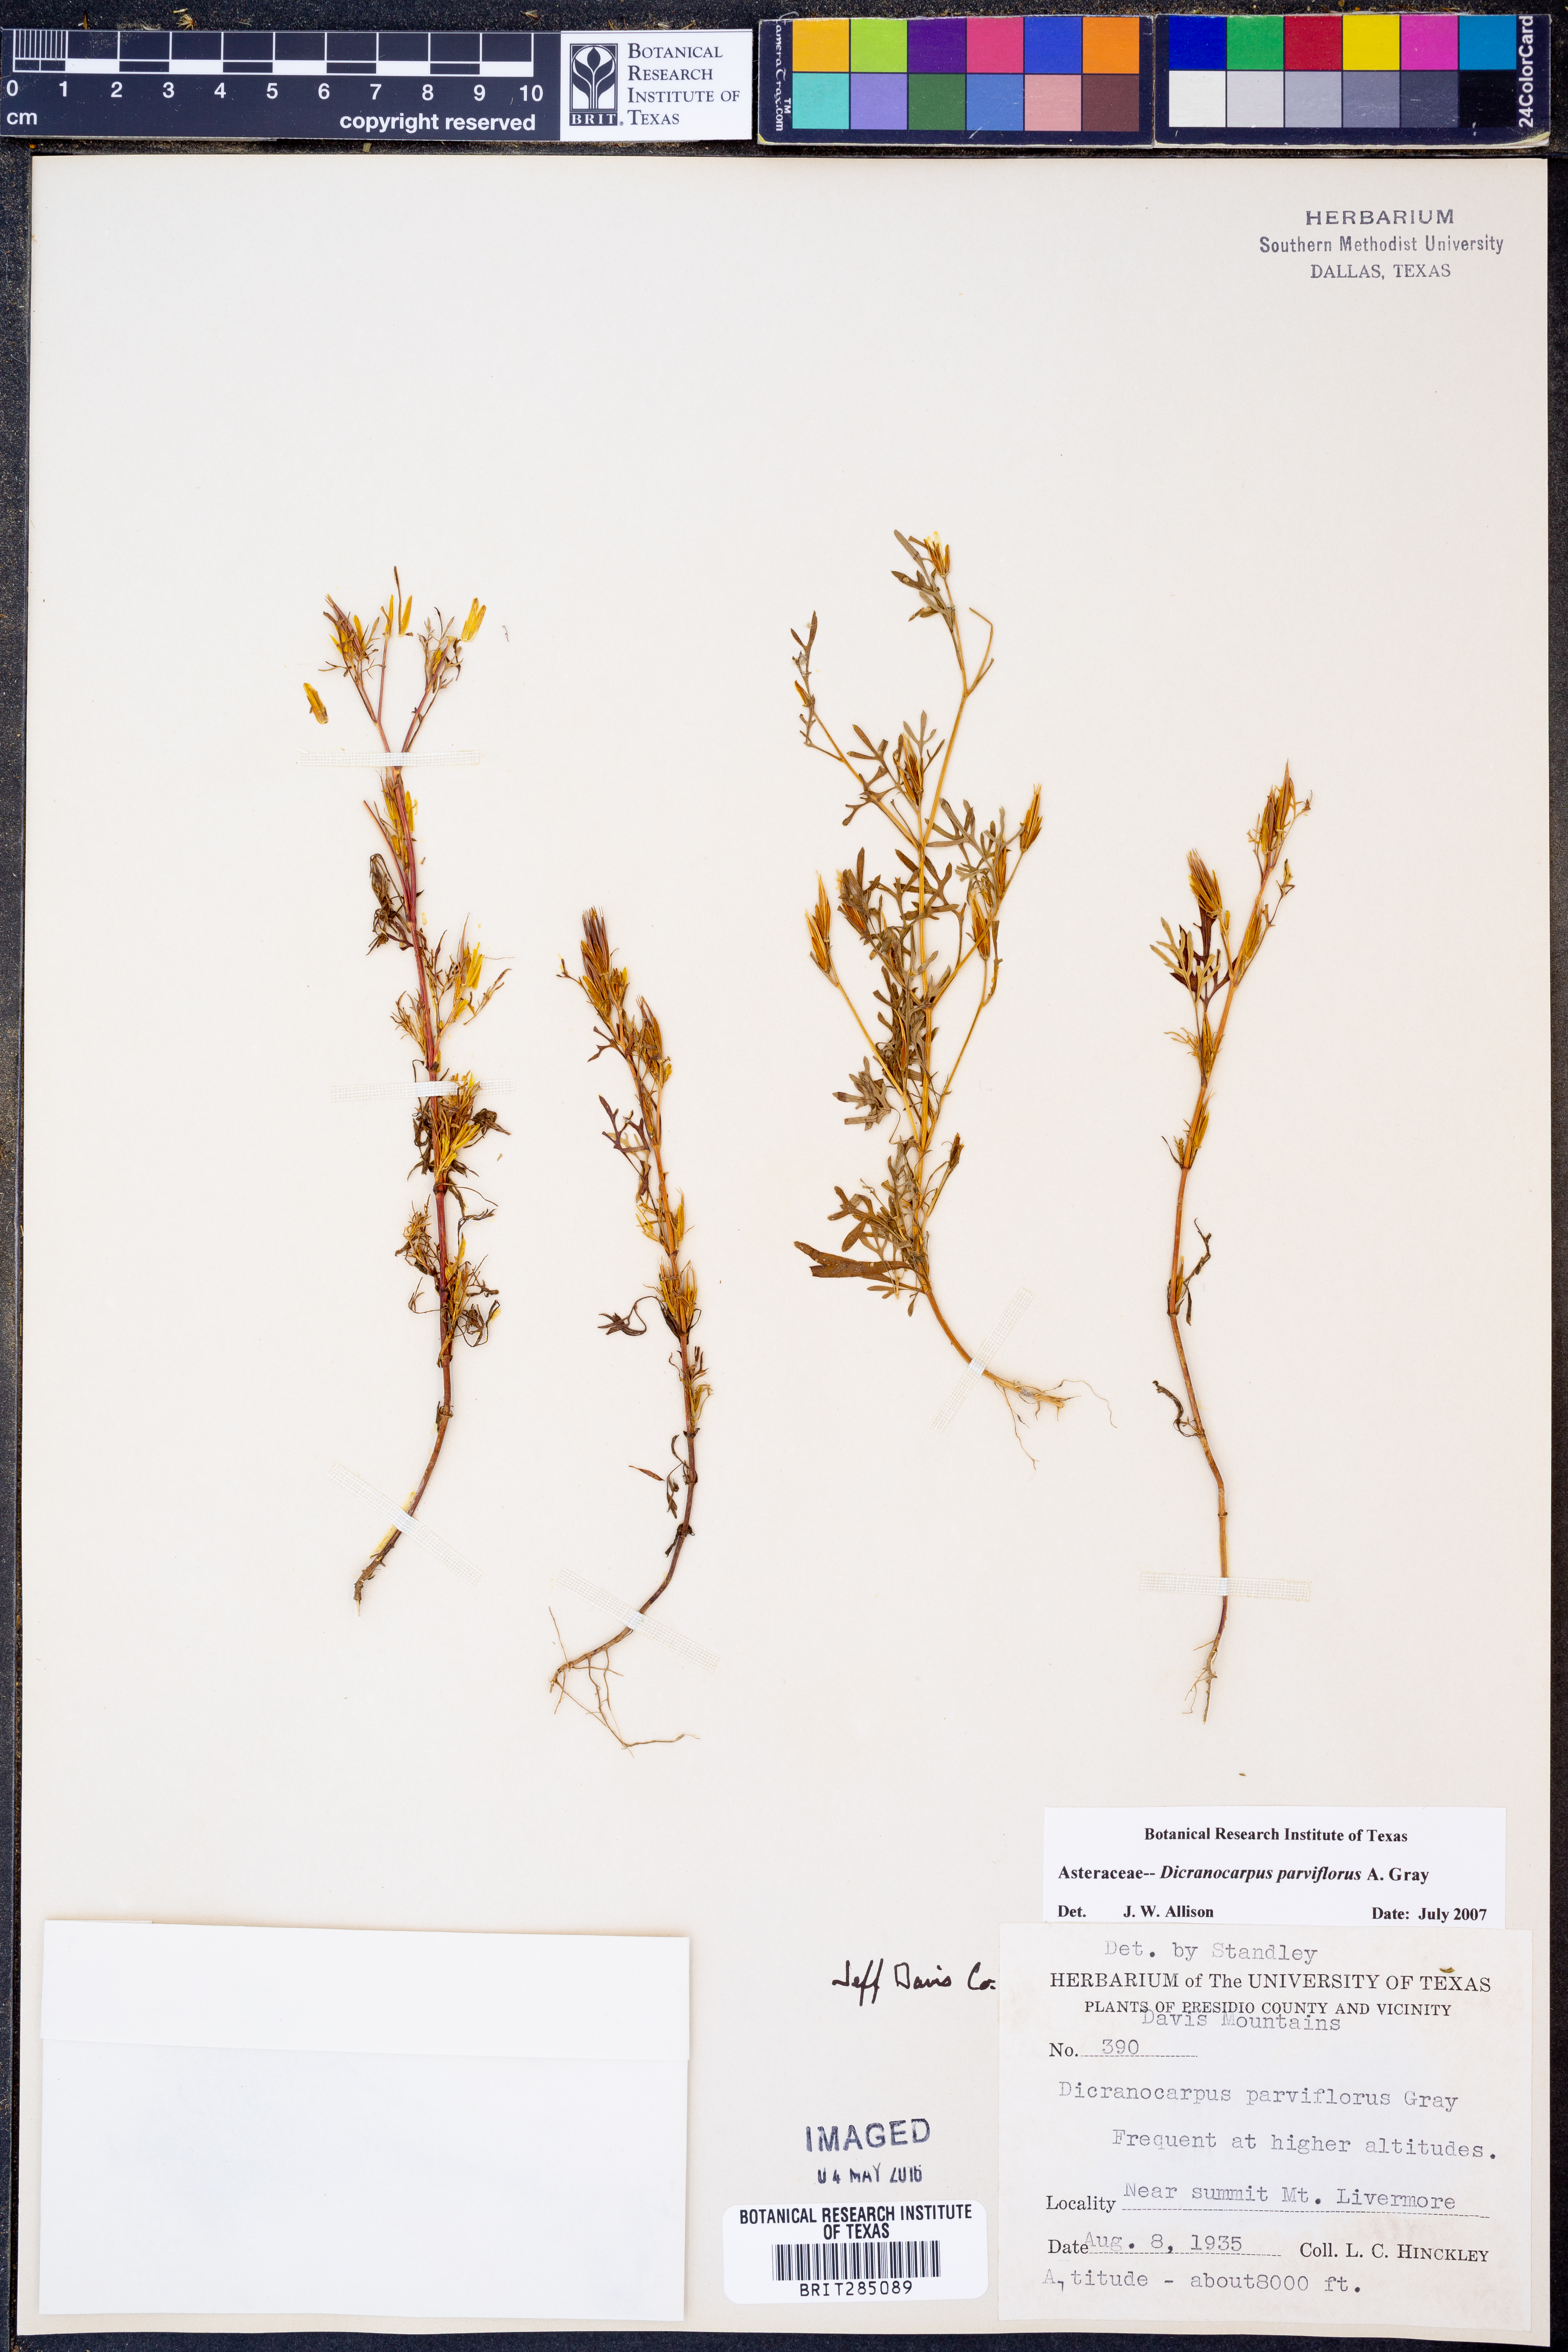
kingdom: Plantae
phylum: Tracheophyta
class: Magnoliopsida
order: Asterales
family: Asteraceae
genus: Dicranocarpus
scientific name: Dicranocarpus parviflorus
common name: Pitchfork
